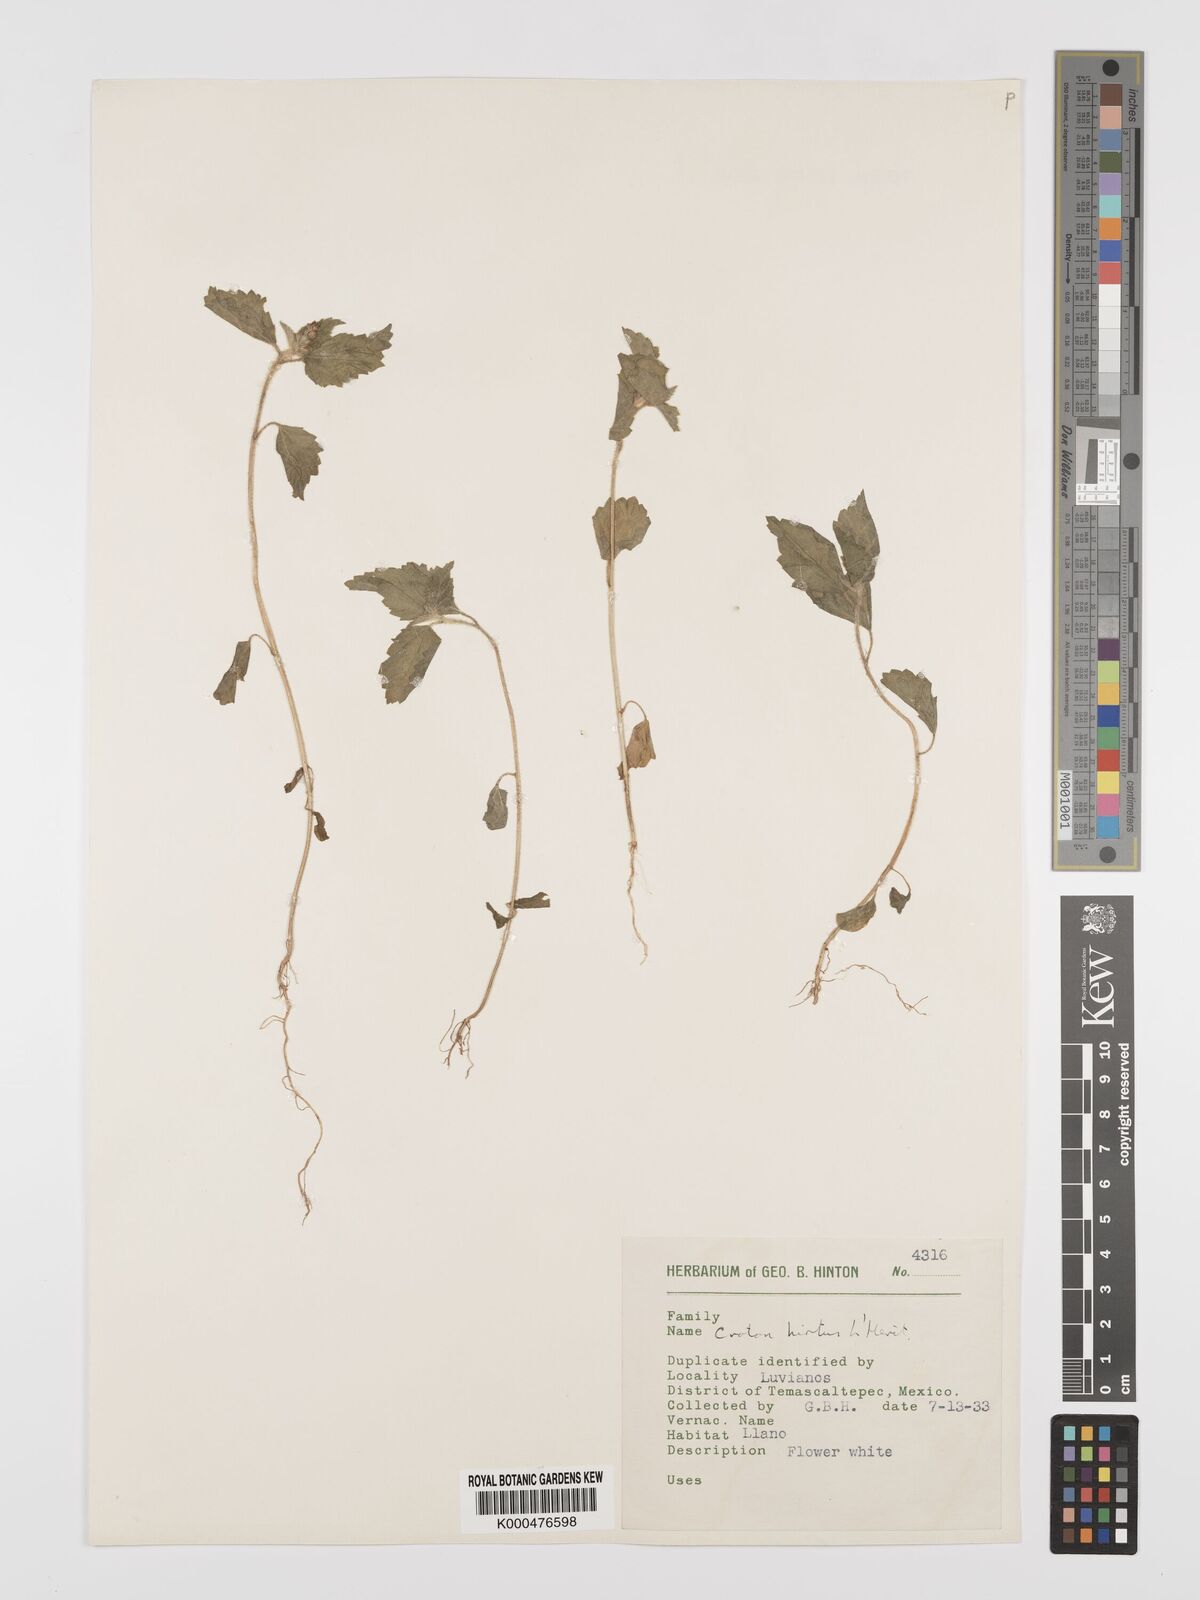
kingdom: Plantae
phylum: Tracheophyta
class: Magnoliopsida
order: Malpighiales
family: Euphorbiaceae
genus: Croton
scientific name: Croton
